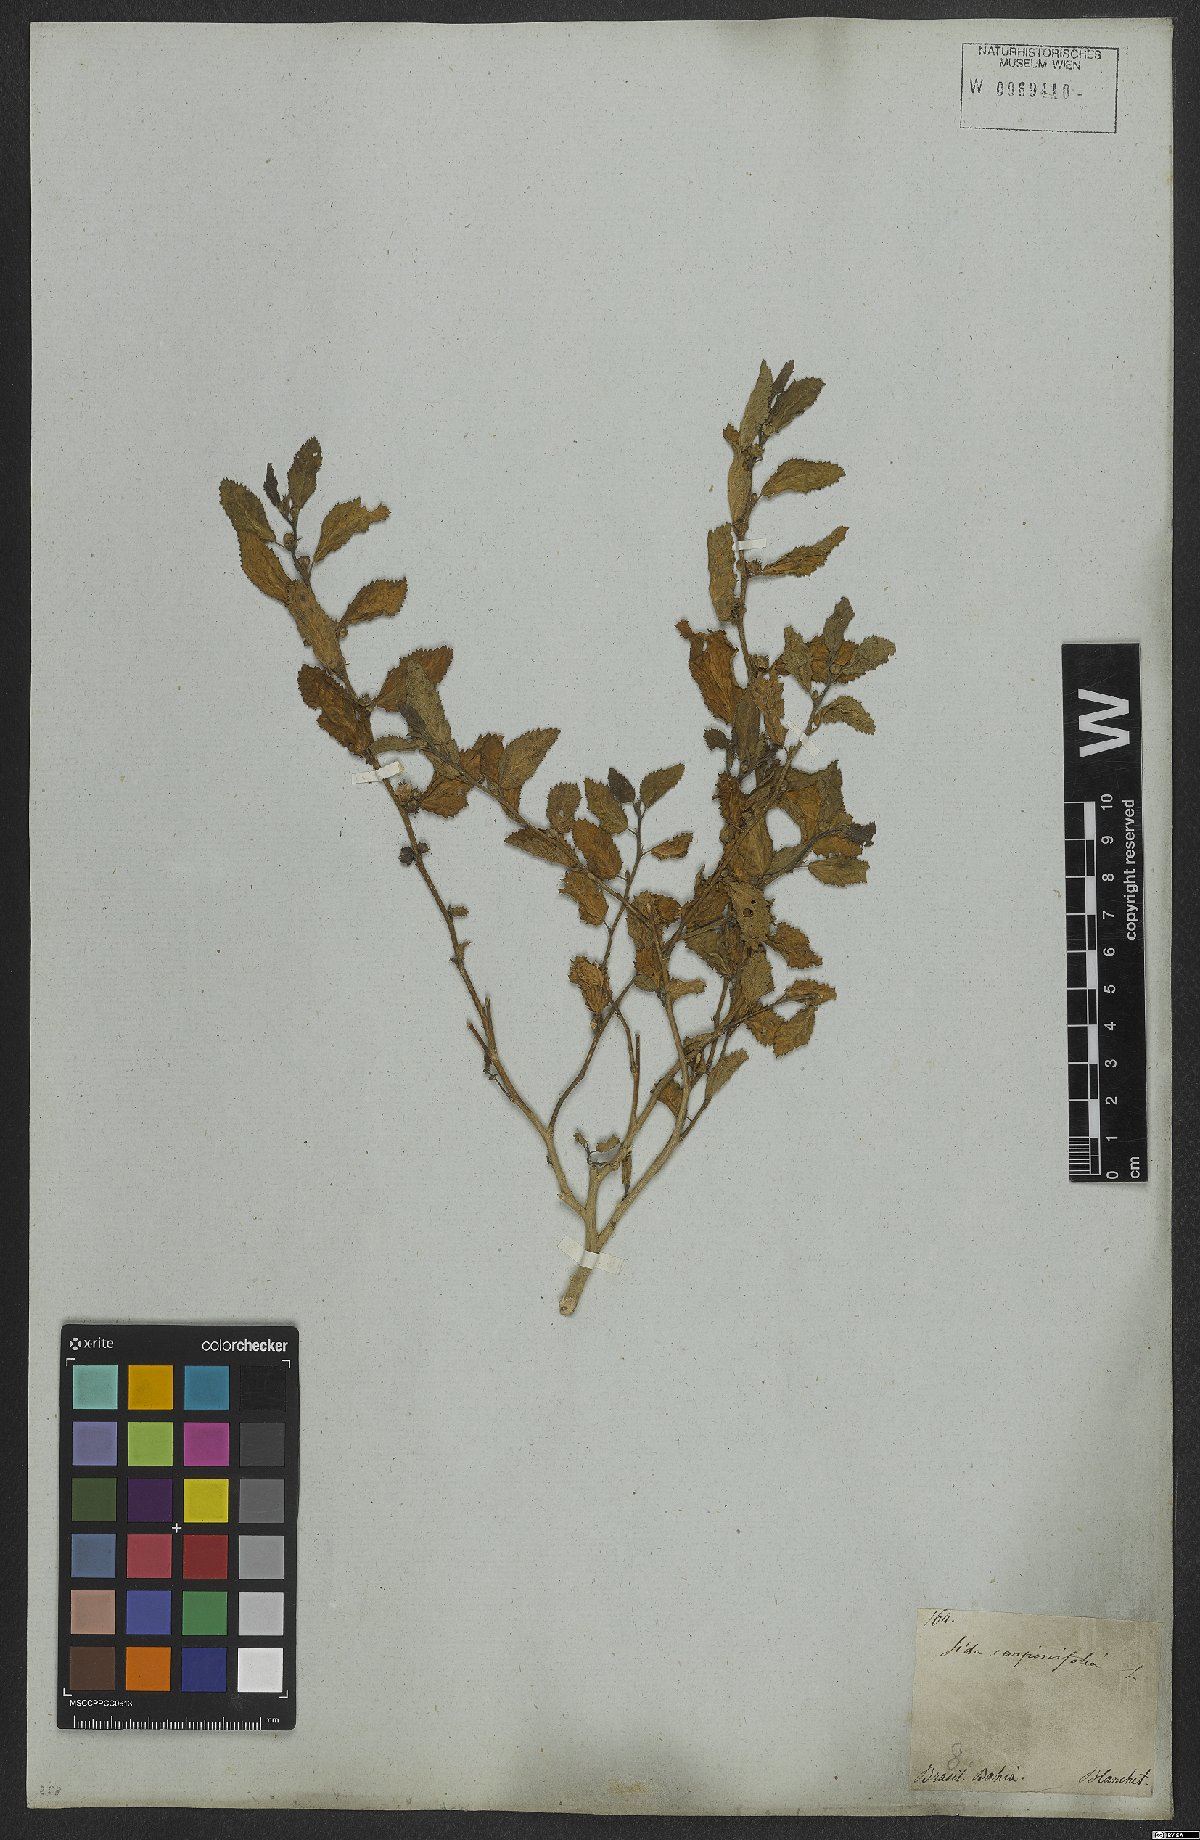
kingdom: Plantae
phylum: Tracheophyta
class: Magnoliopsida
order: Malvales
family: Malvaceae
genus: Sida
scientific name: Sida acuta
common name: Common wireweed
